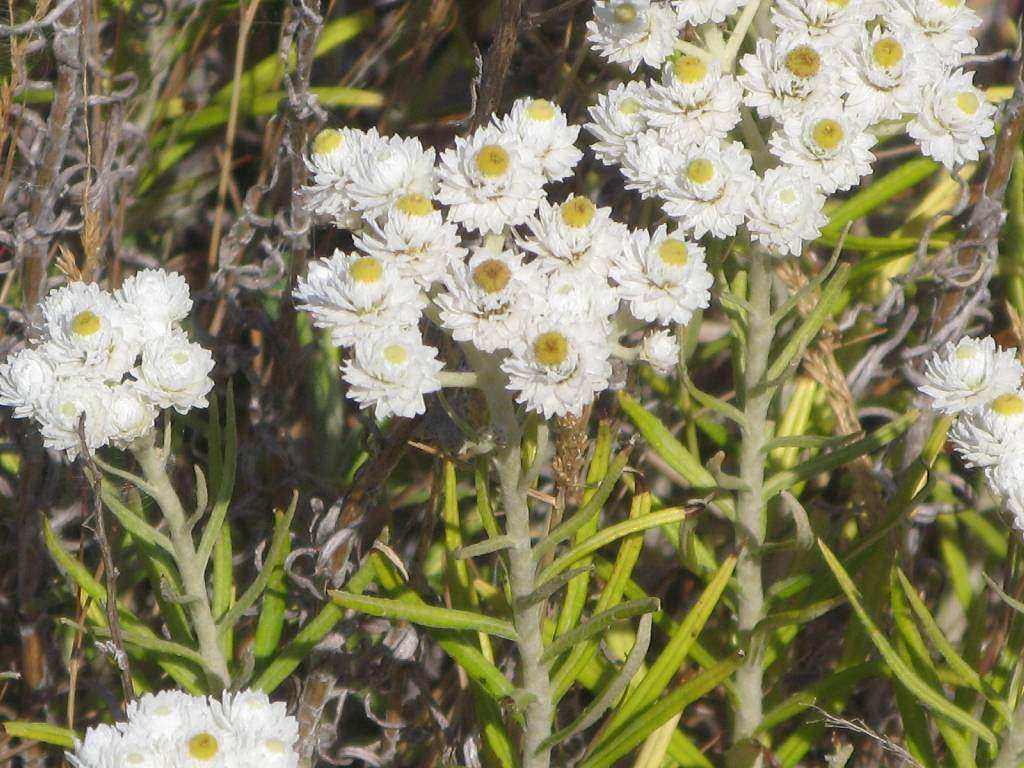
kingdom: Plantae
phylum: Tracheophyta
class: Magnoliopsida
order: Asterales
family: Asteraceae
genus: Anaphalis
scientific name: Anaphalis margaritacea
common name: Perlekurv
